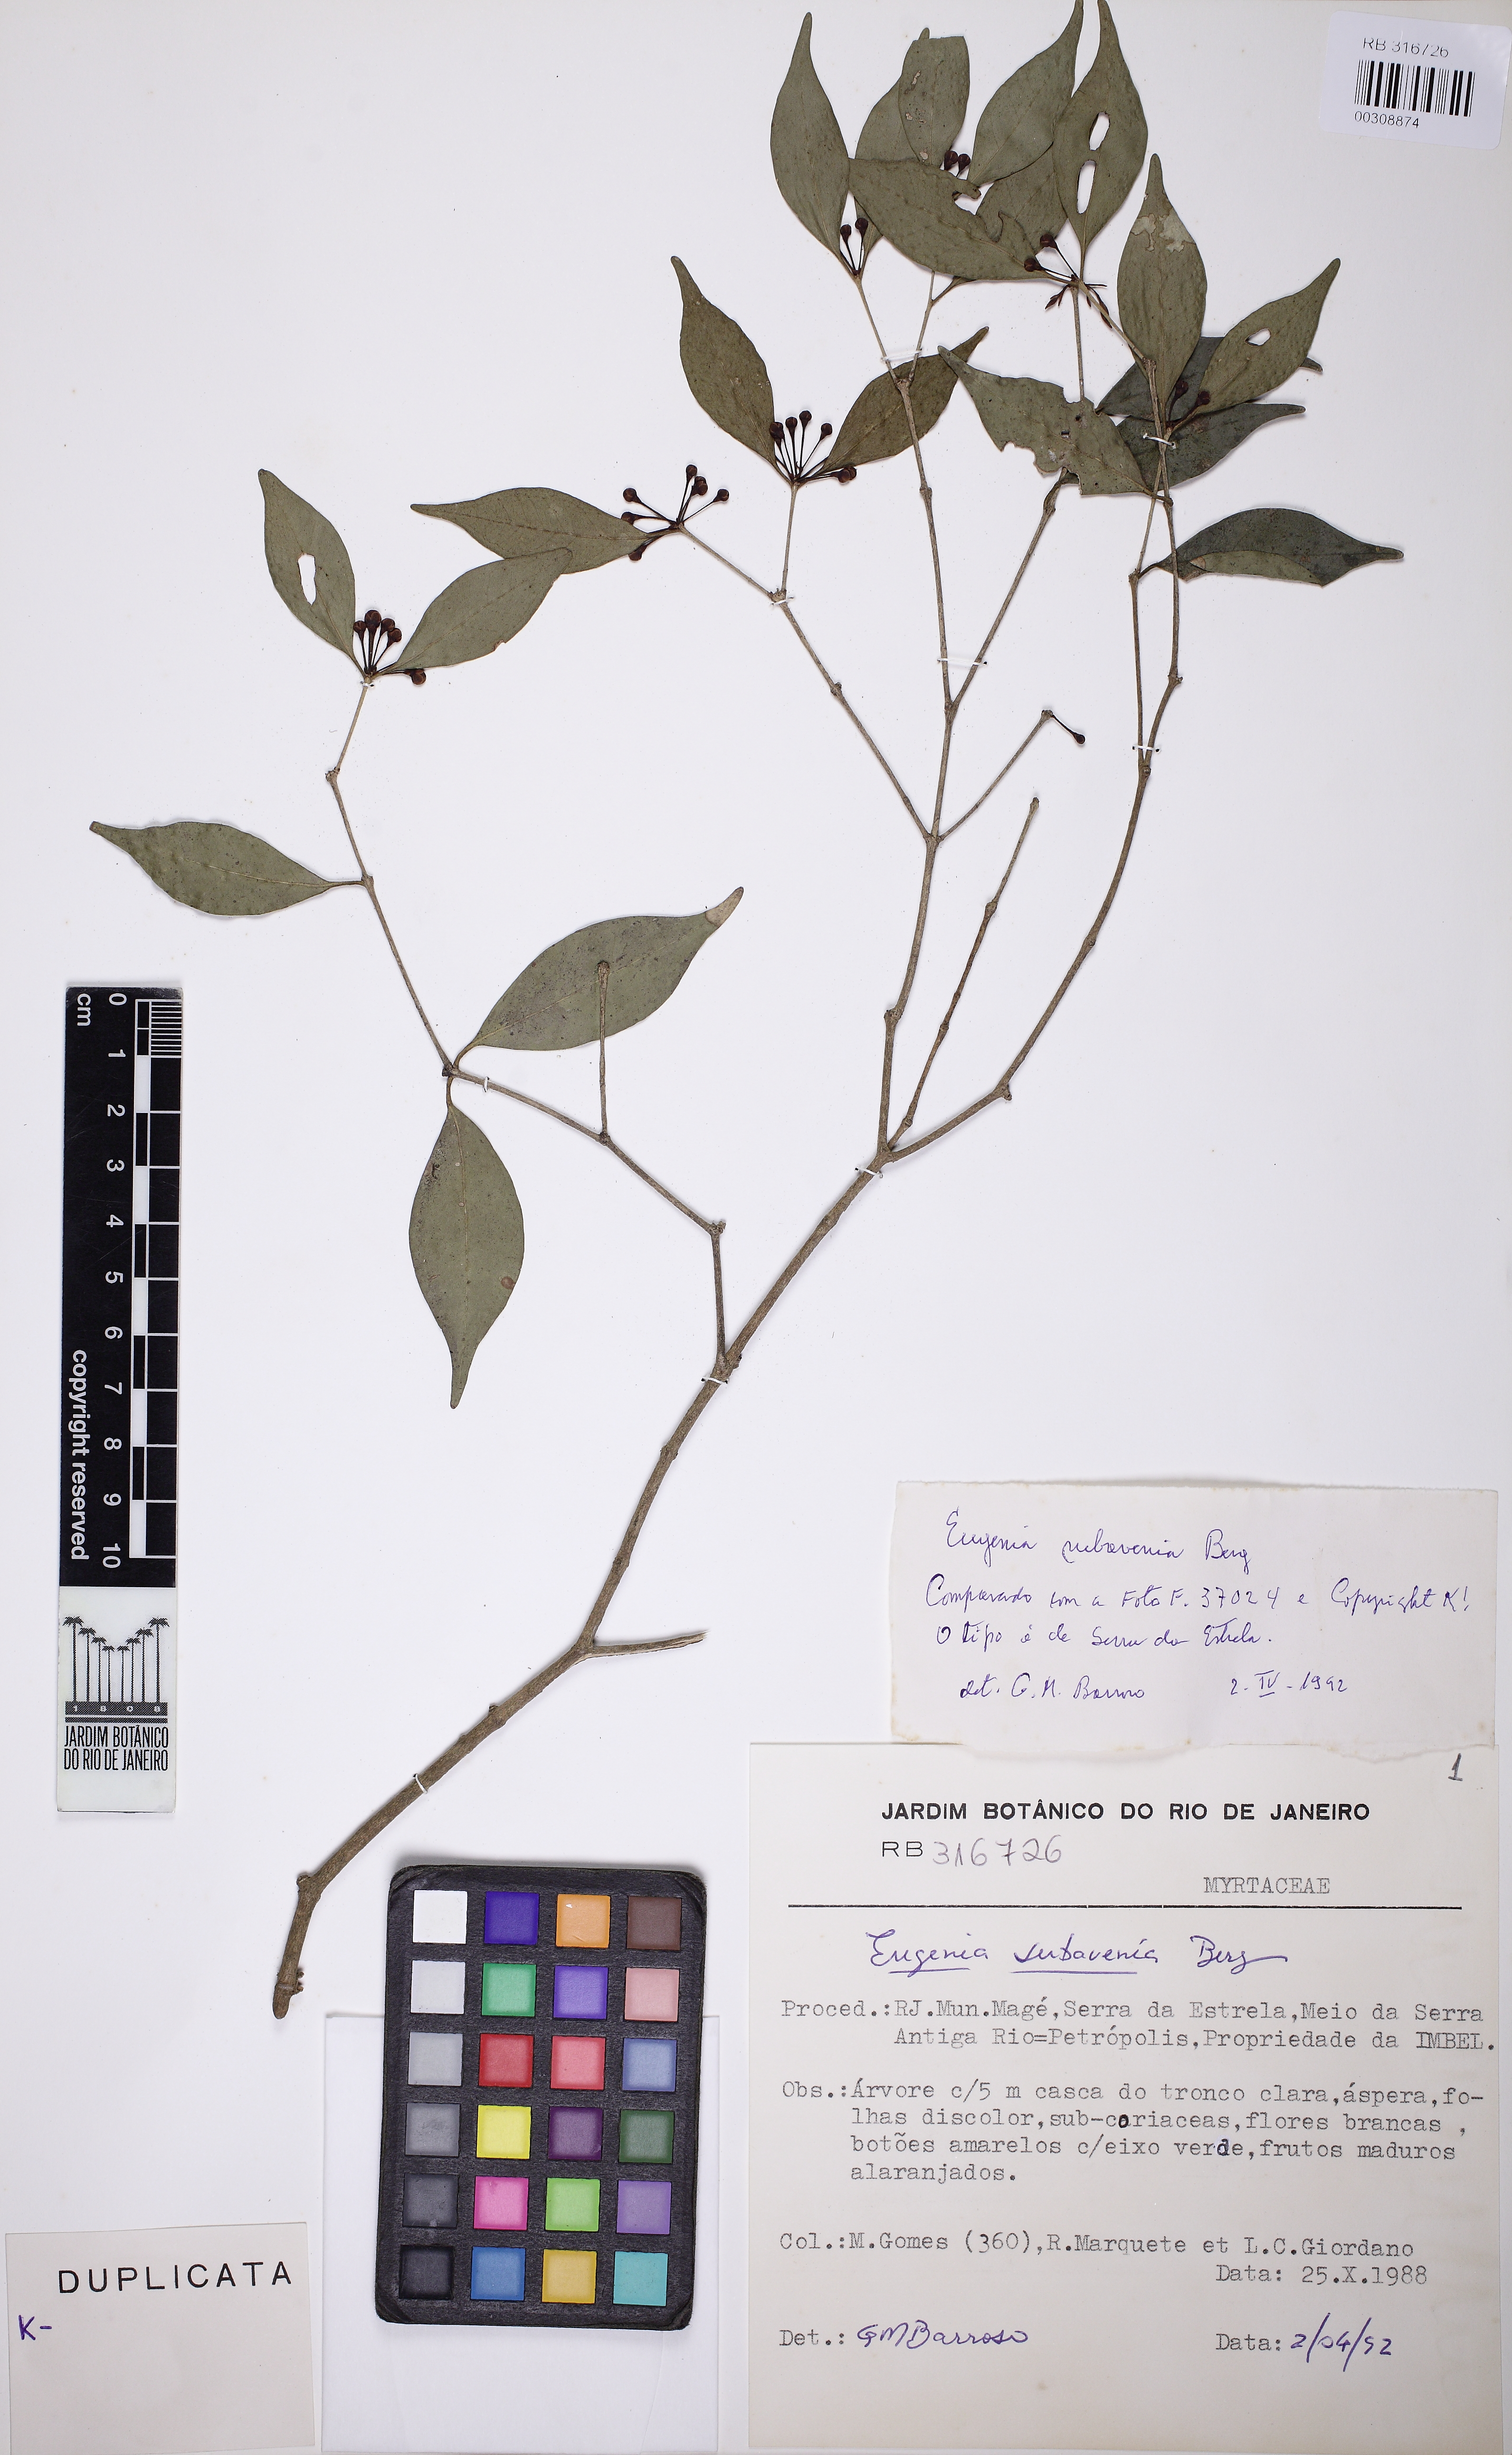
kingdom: Plantae
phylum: Tracheophyta
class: Magnoliopsida
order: Myrtales
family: Myrtaceae
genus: Eugenia
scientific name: Eugenia stigmatosa
